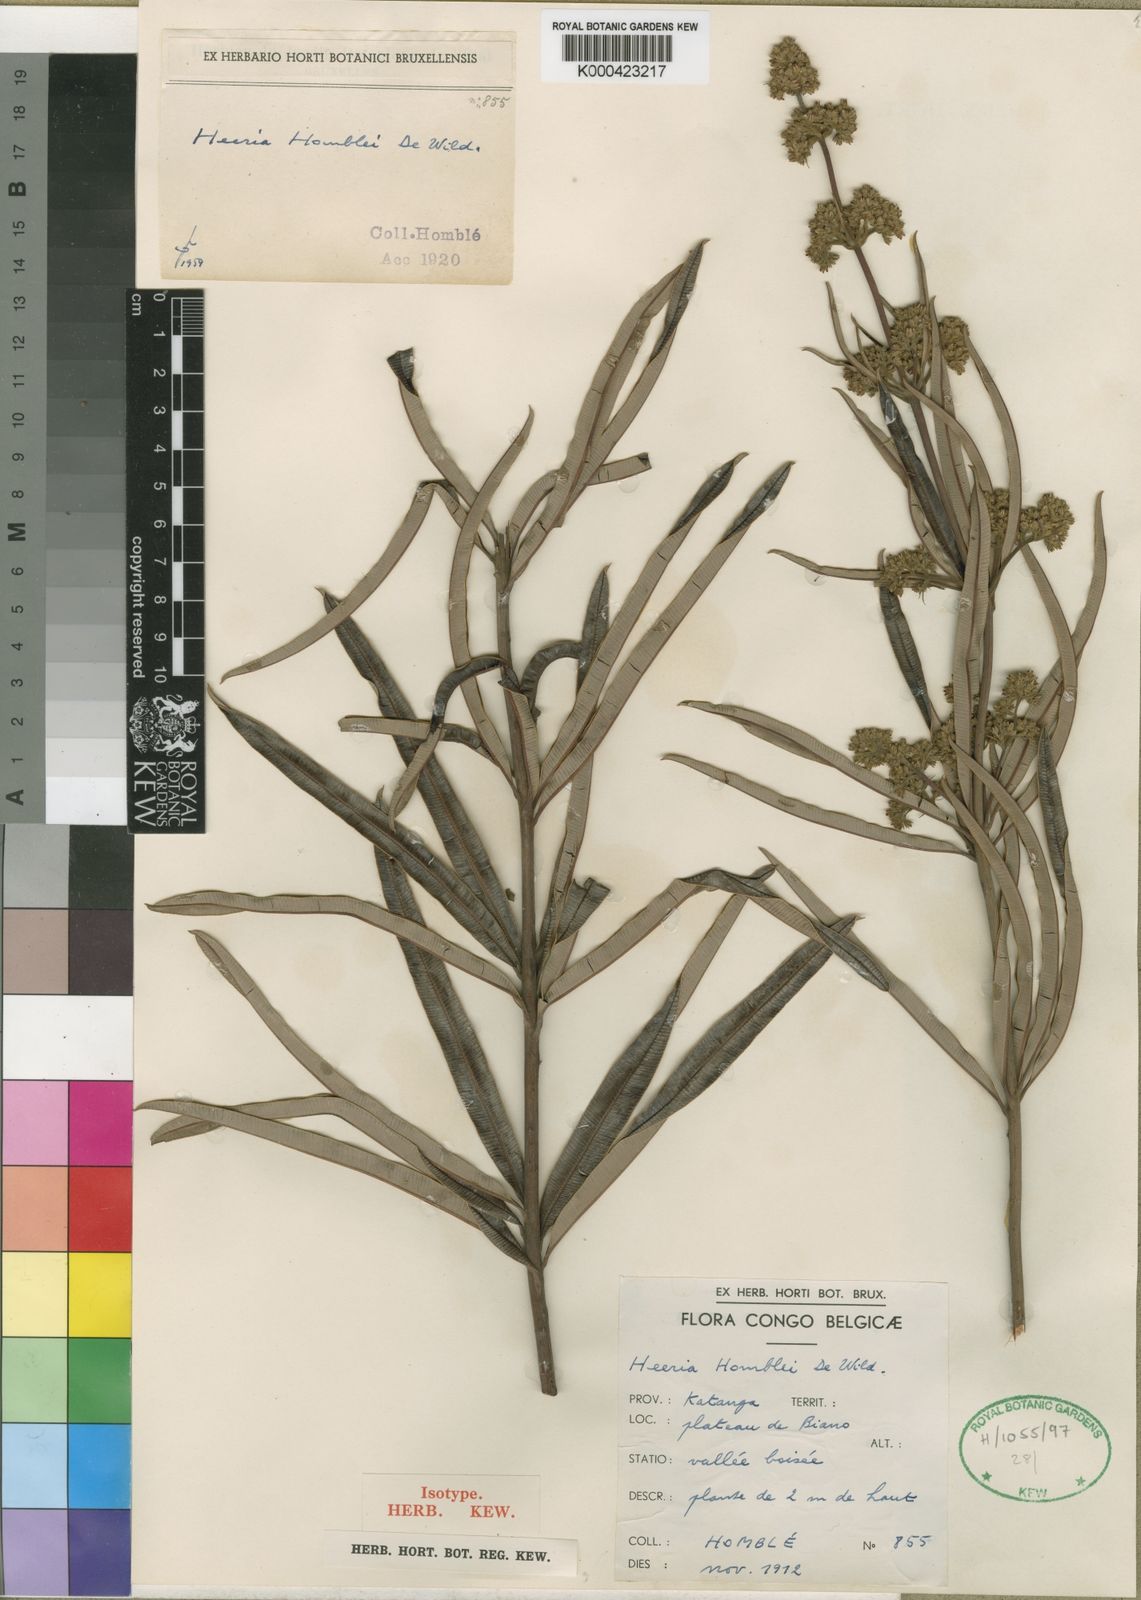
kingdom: Plantae
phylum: Tracheophyta
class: Magnoliopsida
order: Sapindales
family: Anacardiaceae
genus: Ozoroa
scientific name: Ozoroa homblei
